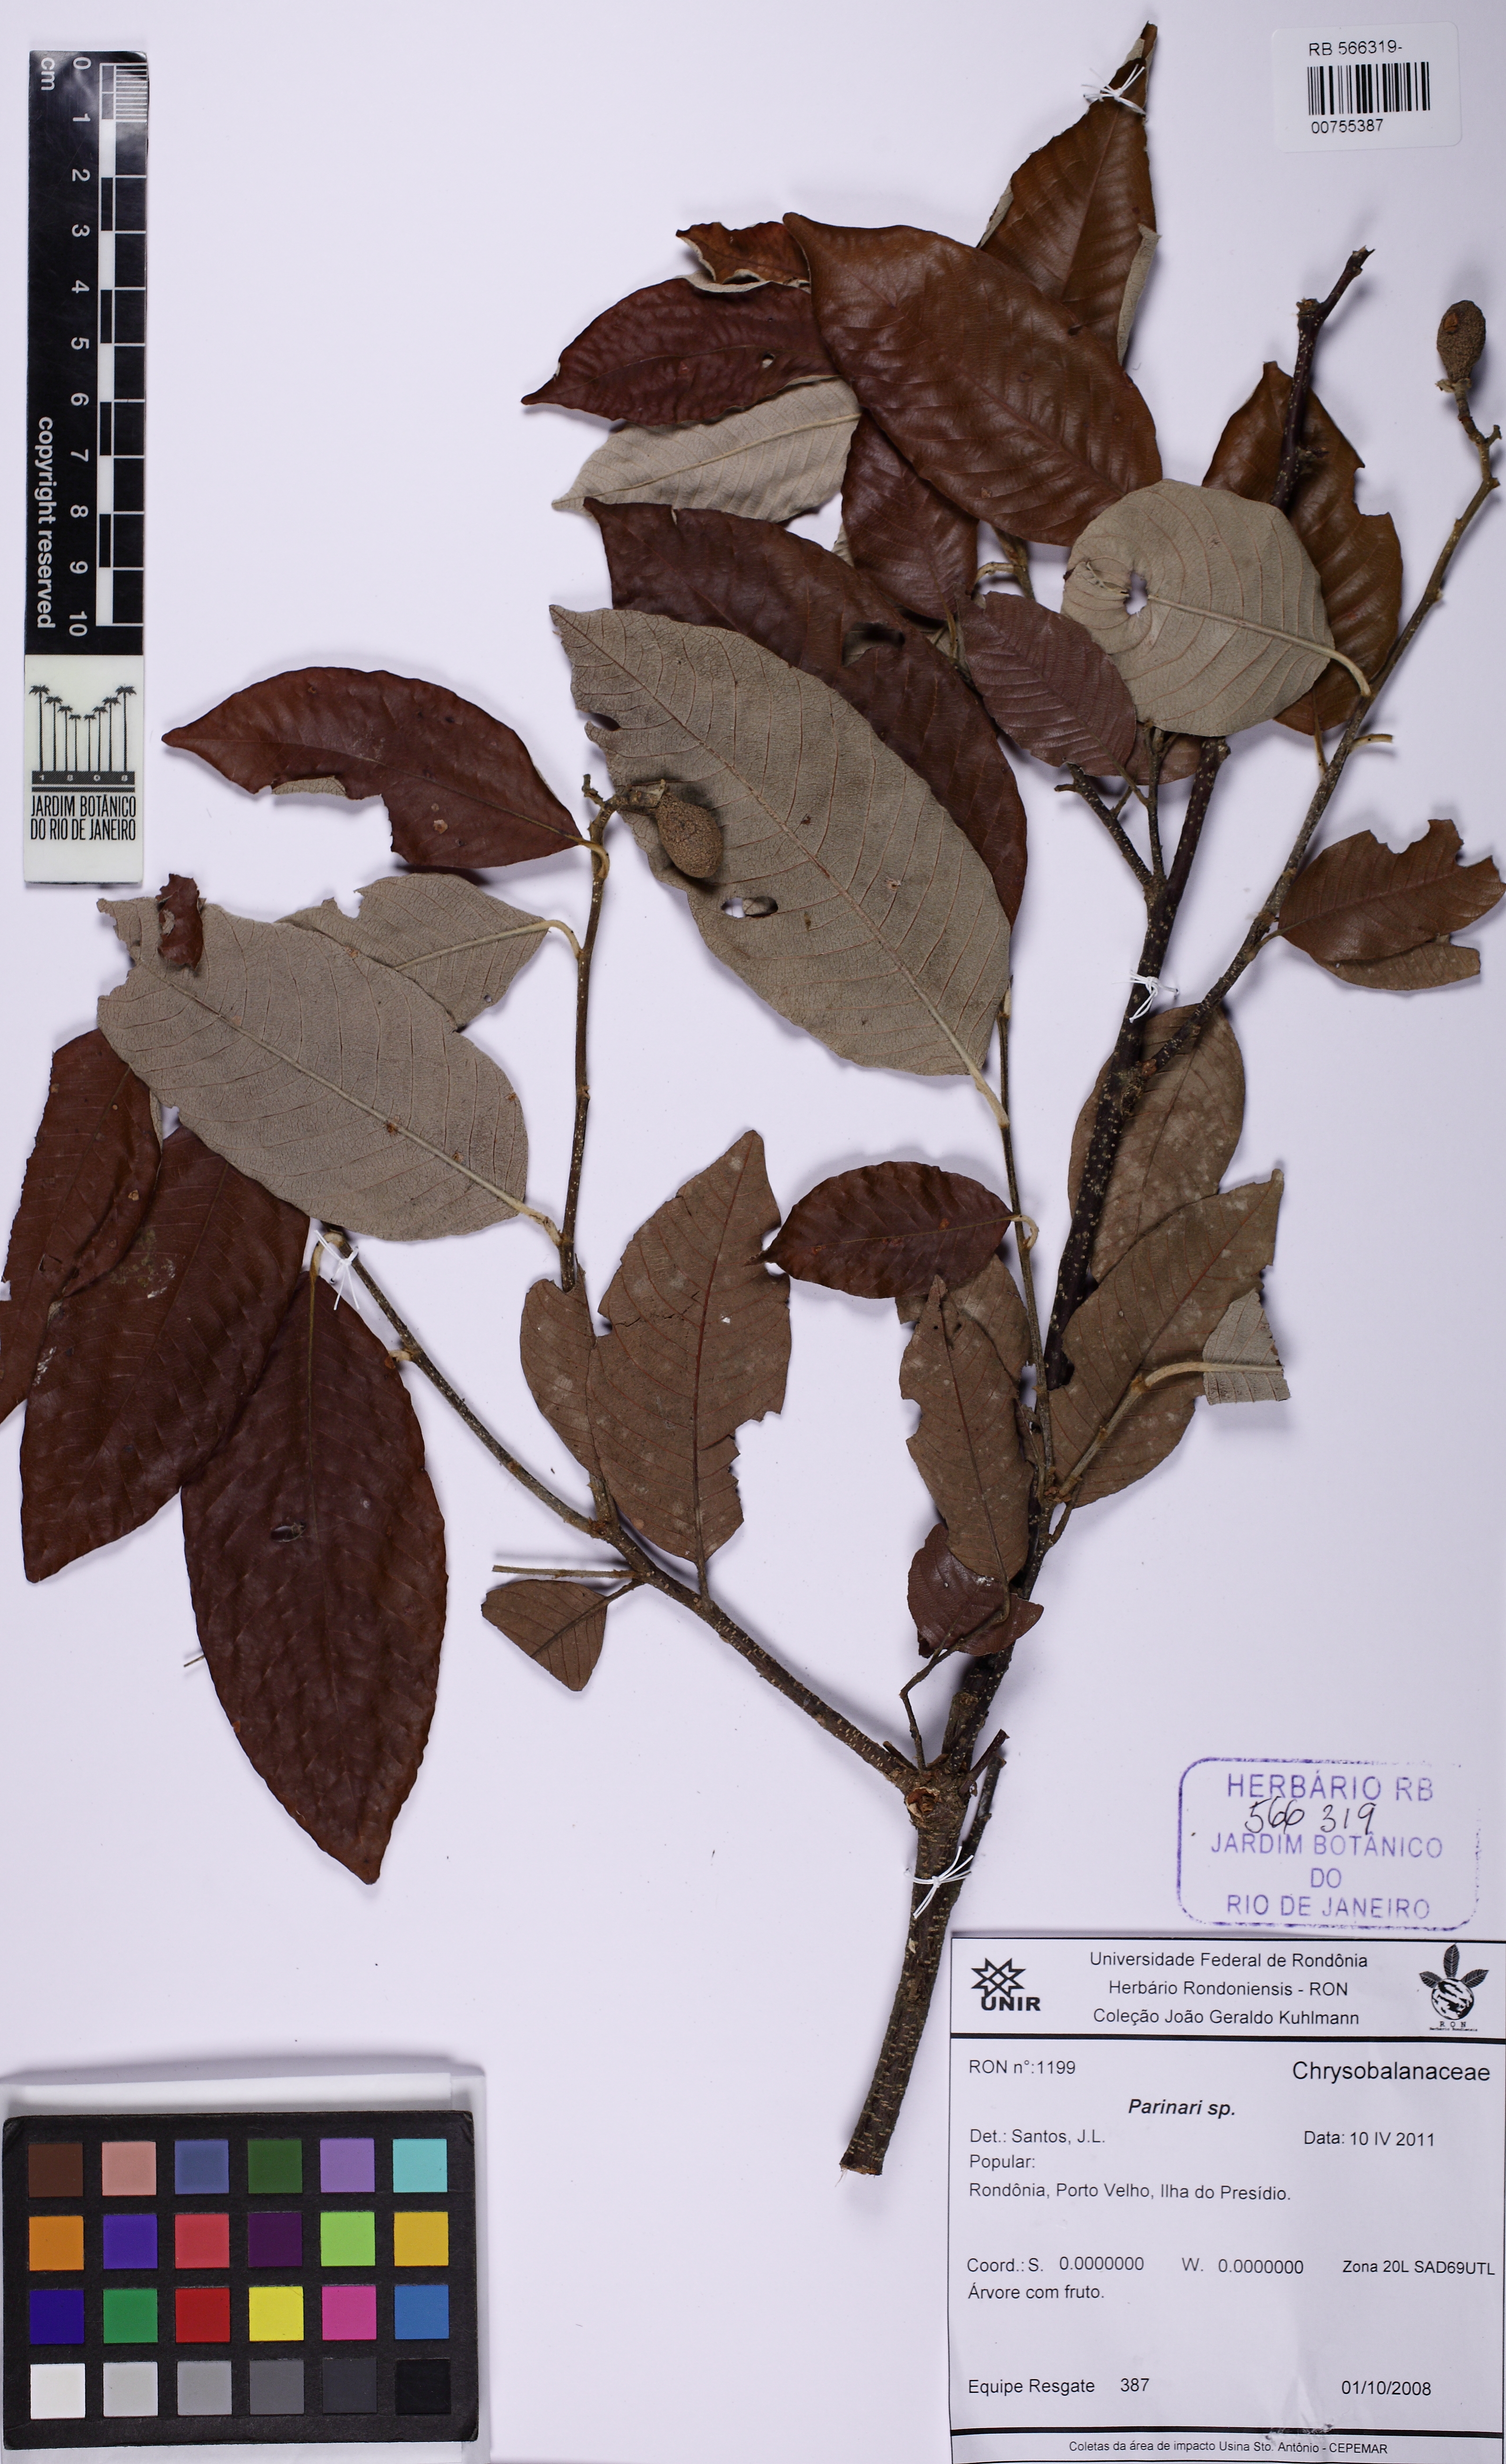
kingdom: Plantae
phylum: Tracheophyta
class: Magnoliopsida
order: Malpighiales
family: Chrysobalanaceae
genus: Parinari
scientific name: Parinari occidentalis
